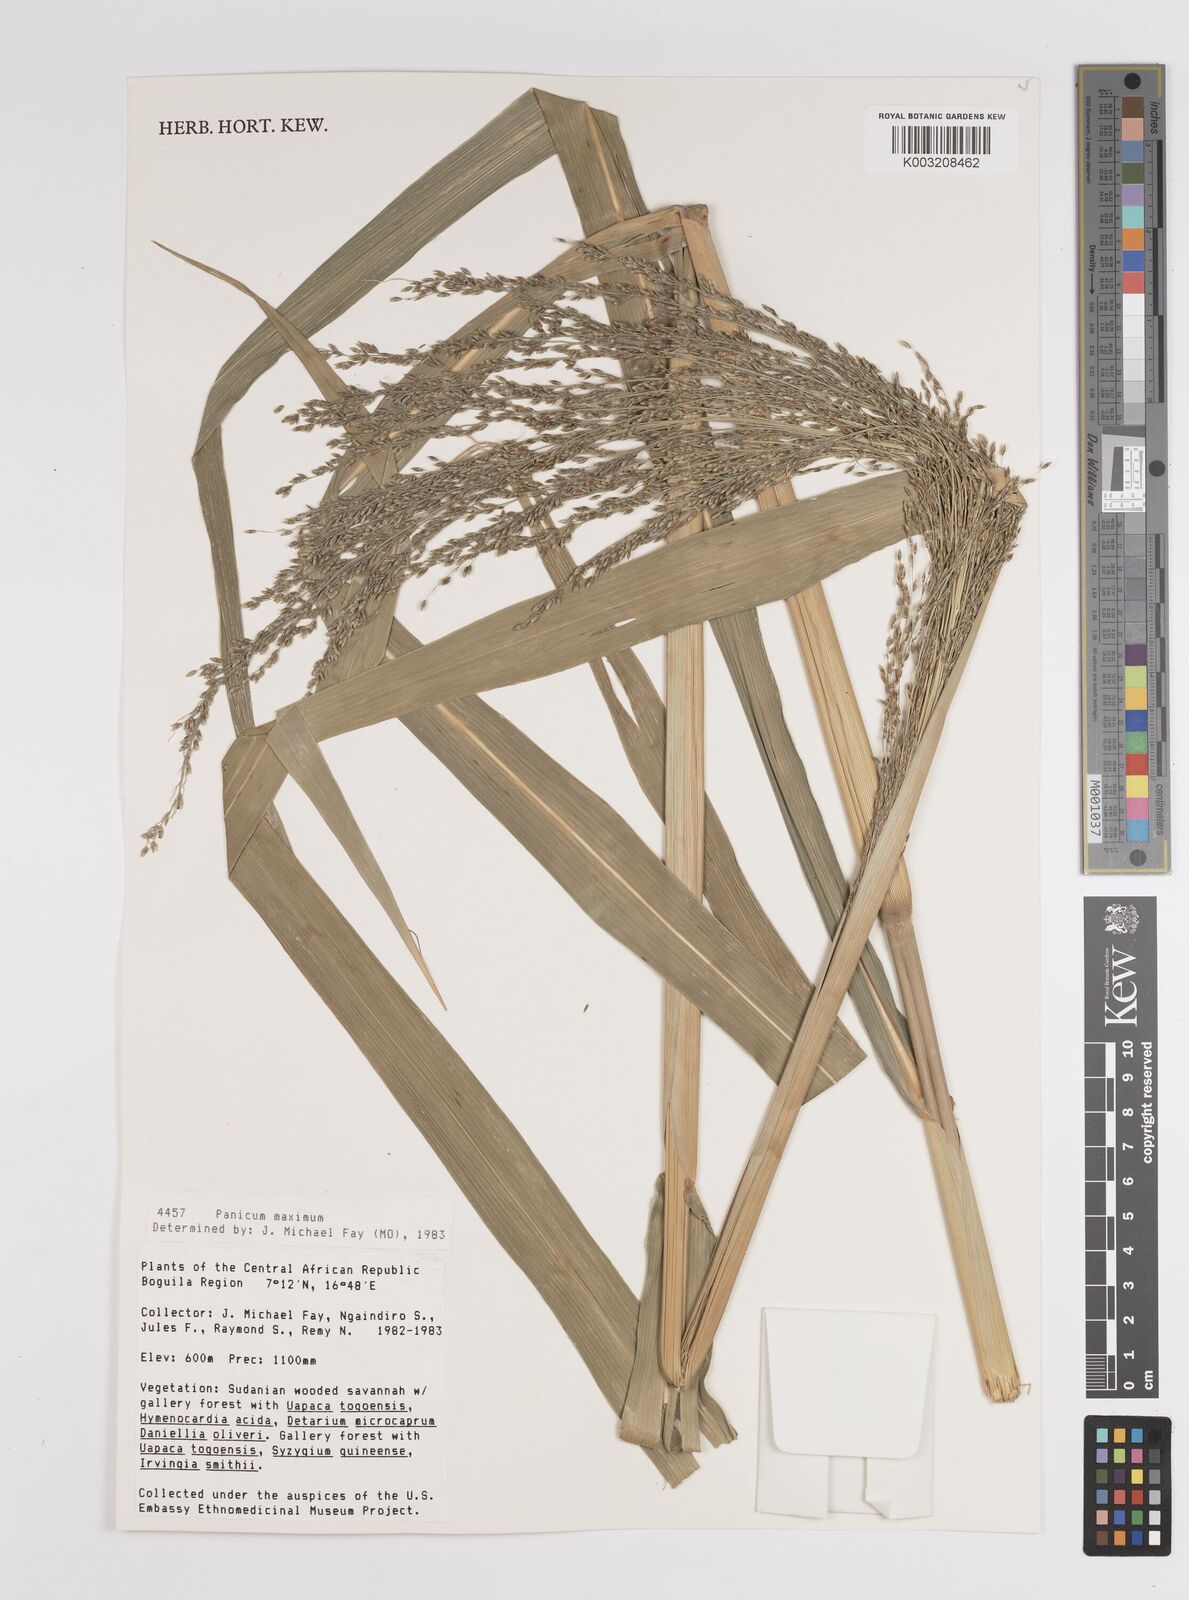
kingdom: Plantae
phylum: Tracheophyta
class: Liliopsida
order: Poales
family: Poaceae
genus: Megathyrsus
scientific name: Megathyrsus maximus
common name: Guineagrass
